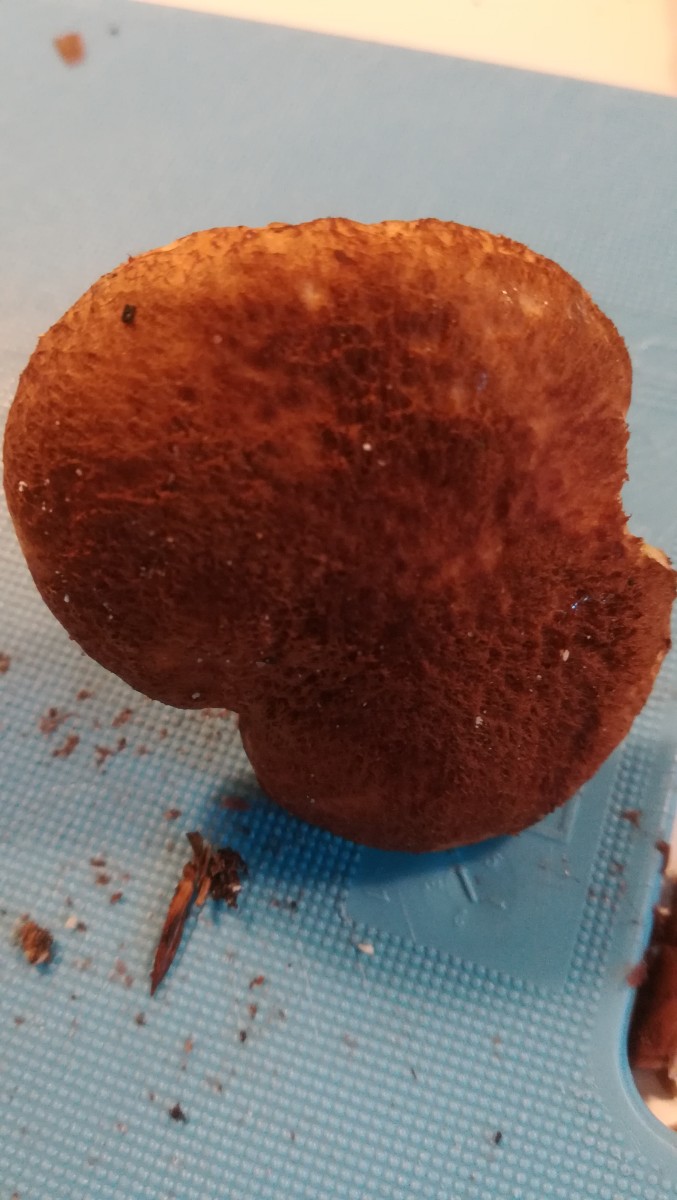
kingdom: Fungi
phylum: Basidiomycota
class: Agaricomycetes
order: Boletales
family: Suillaceae
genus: Suillus
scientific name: Suillus cavipes
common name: hulstokket slimrørhat
